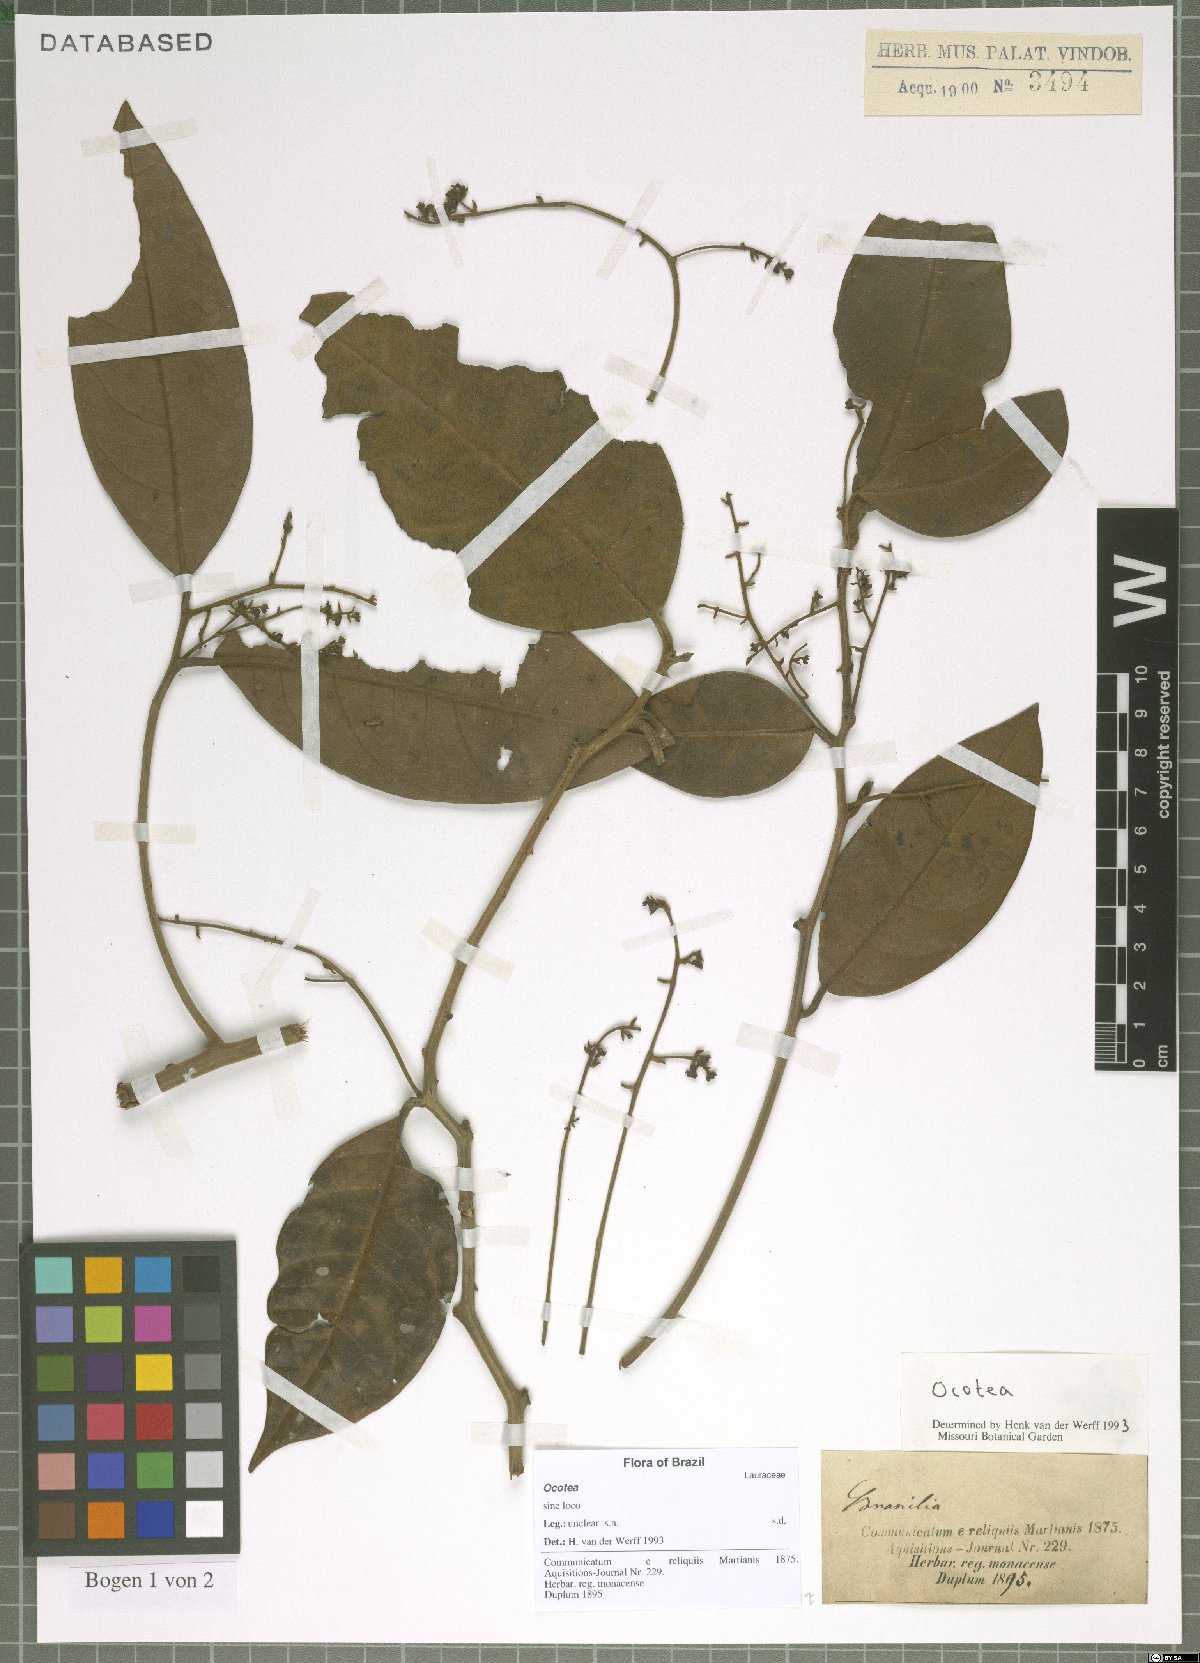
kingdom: Plantae
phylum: Tracheophyta
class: Magnoliopsida
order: Laurales
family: Lauraceae
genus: Ocotea
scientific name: Ocotea
